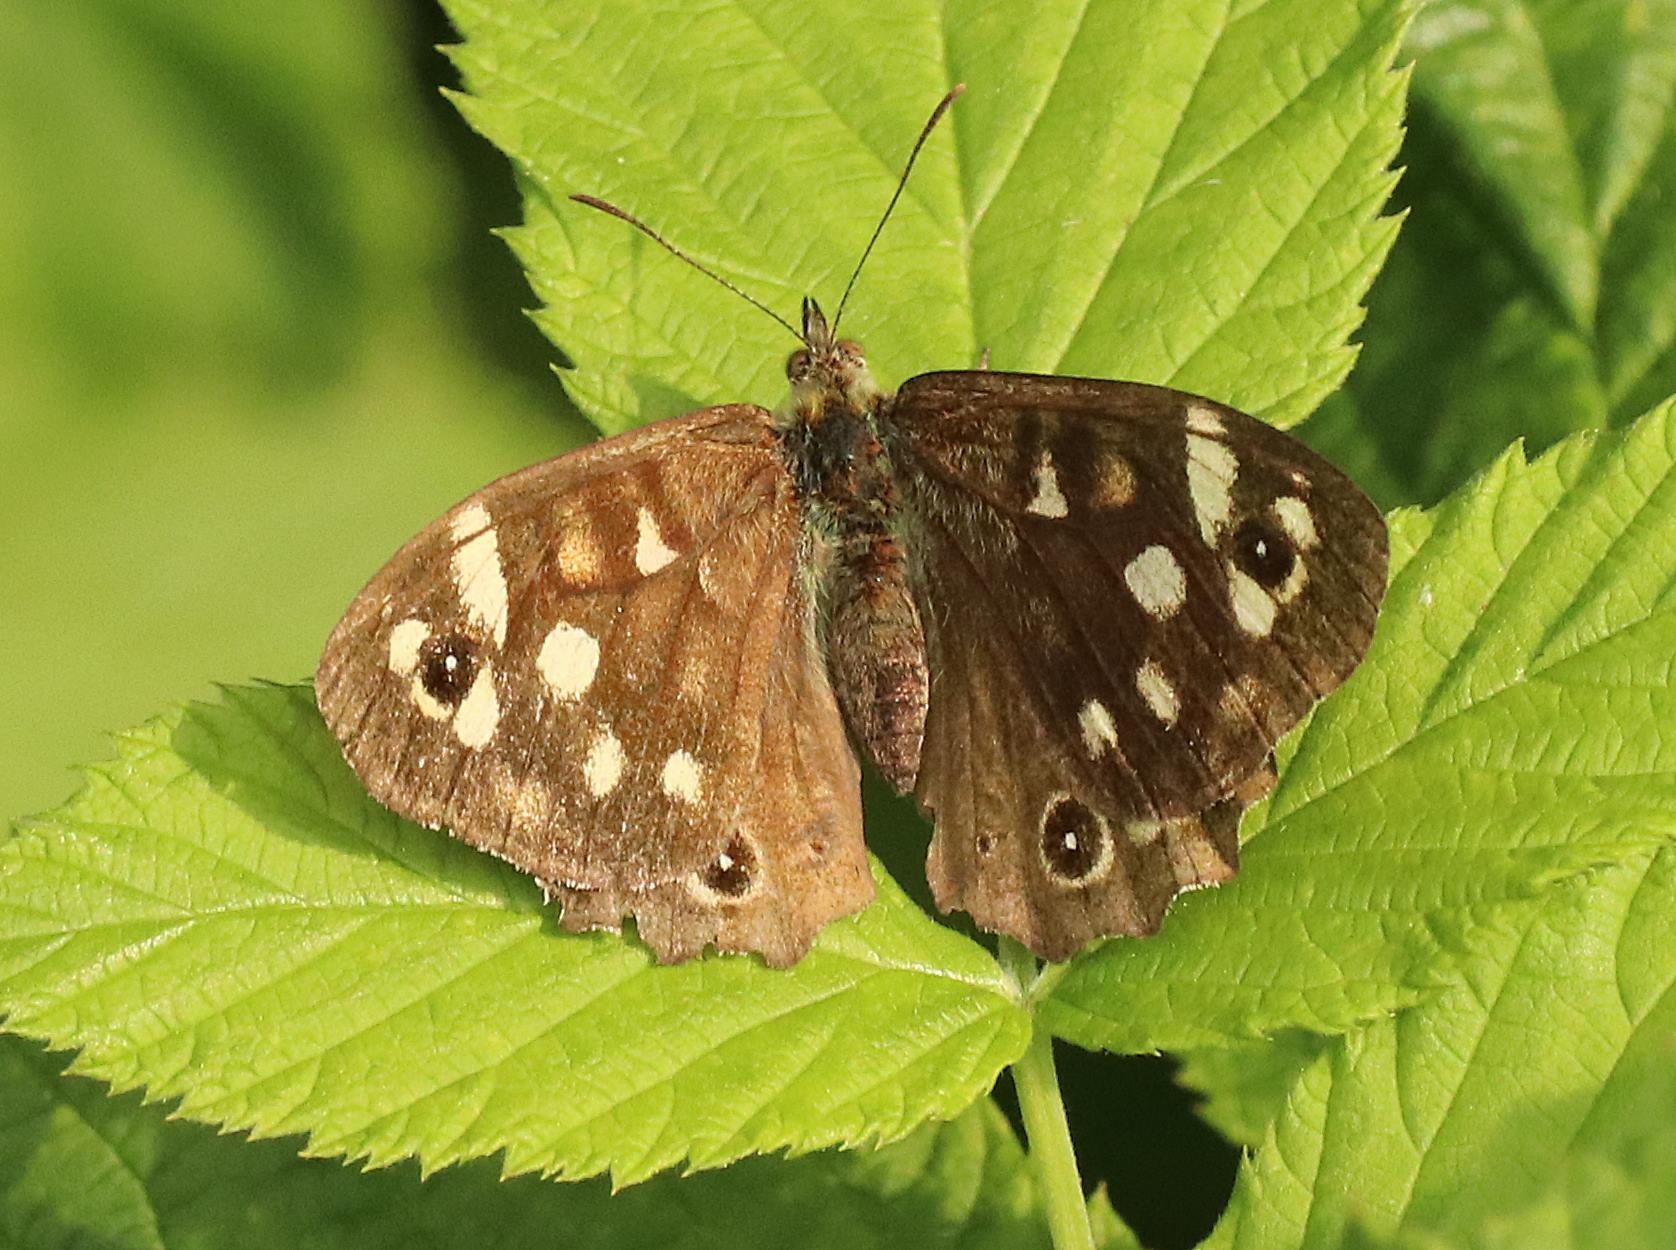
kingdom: Animalia
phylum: Arthropoda
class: Insecta
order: Lepidoptera
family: Nymphalidae
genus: Pararge
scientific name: Pararge aegeria
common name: Skovrandøje
